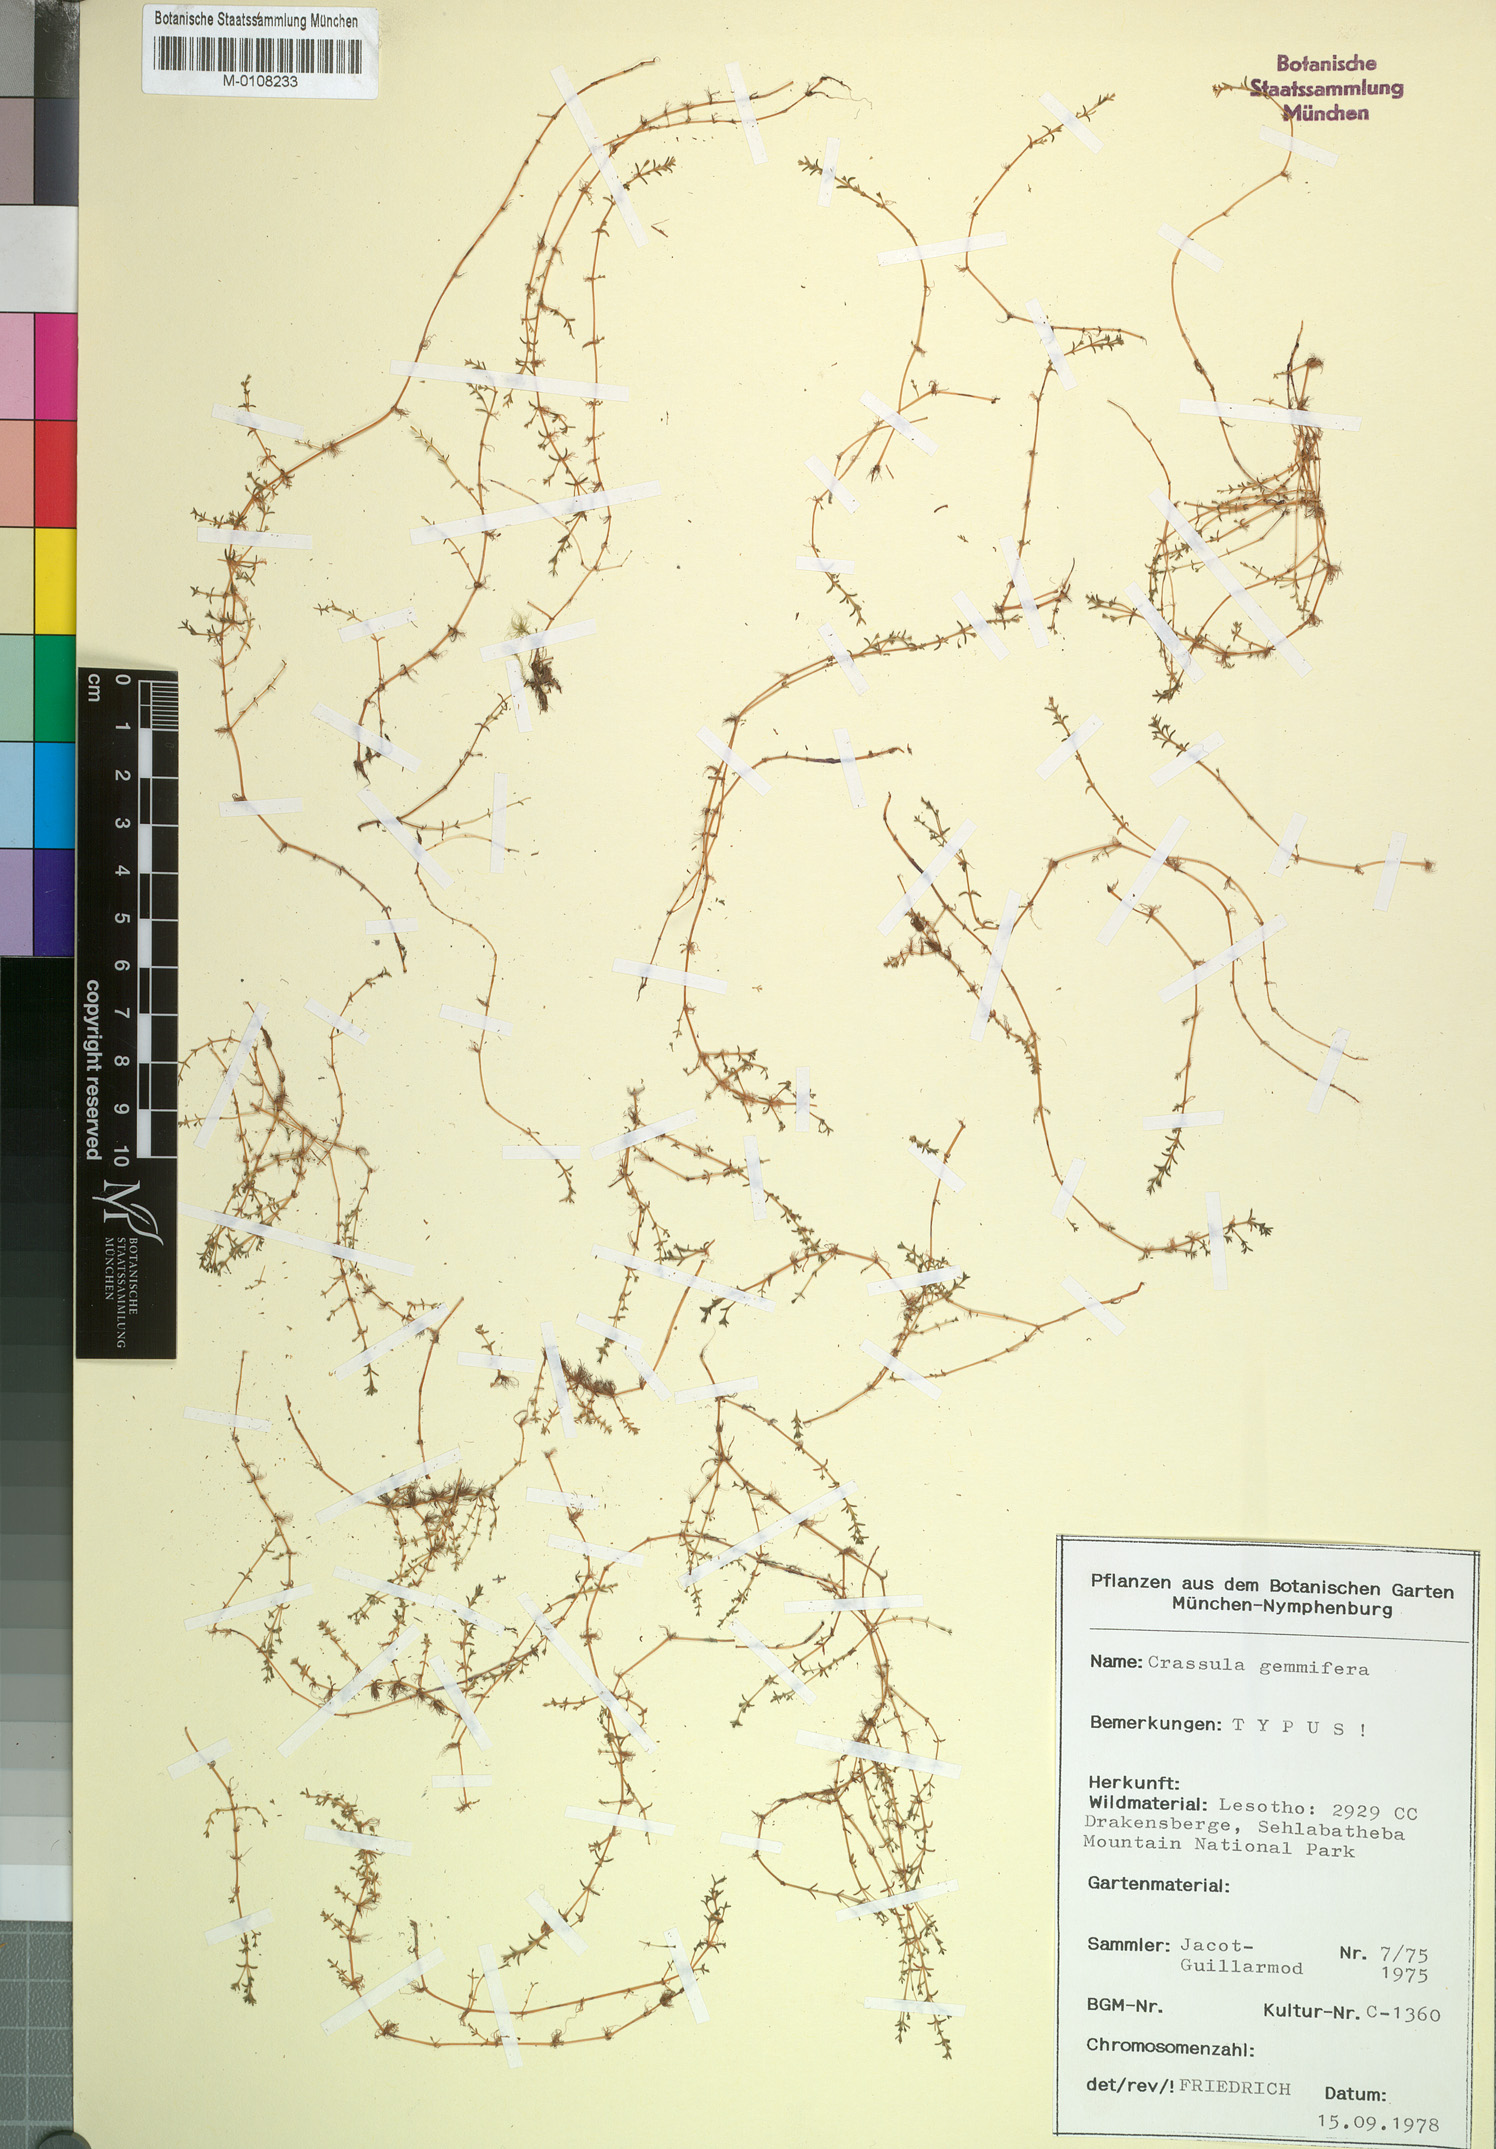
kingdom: Plantae
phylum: Tracheophyta
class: Magnoliopsida
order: Saxifragales
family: Crassulaceae
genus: Crassula
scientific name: Crassula gemmifera
